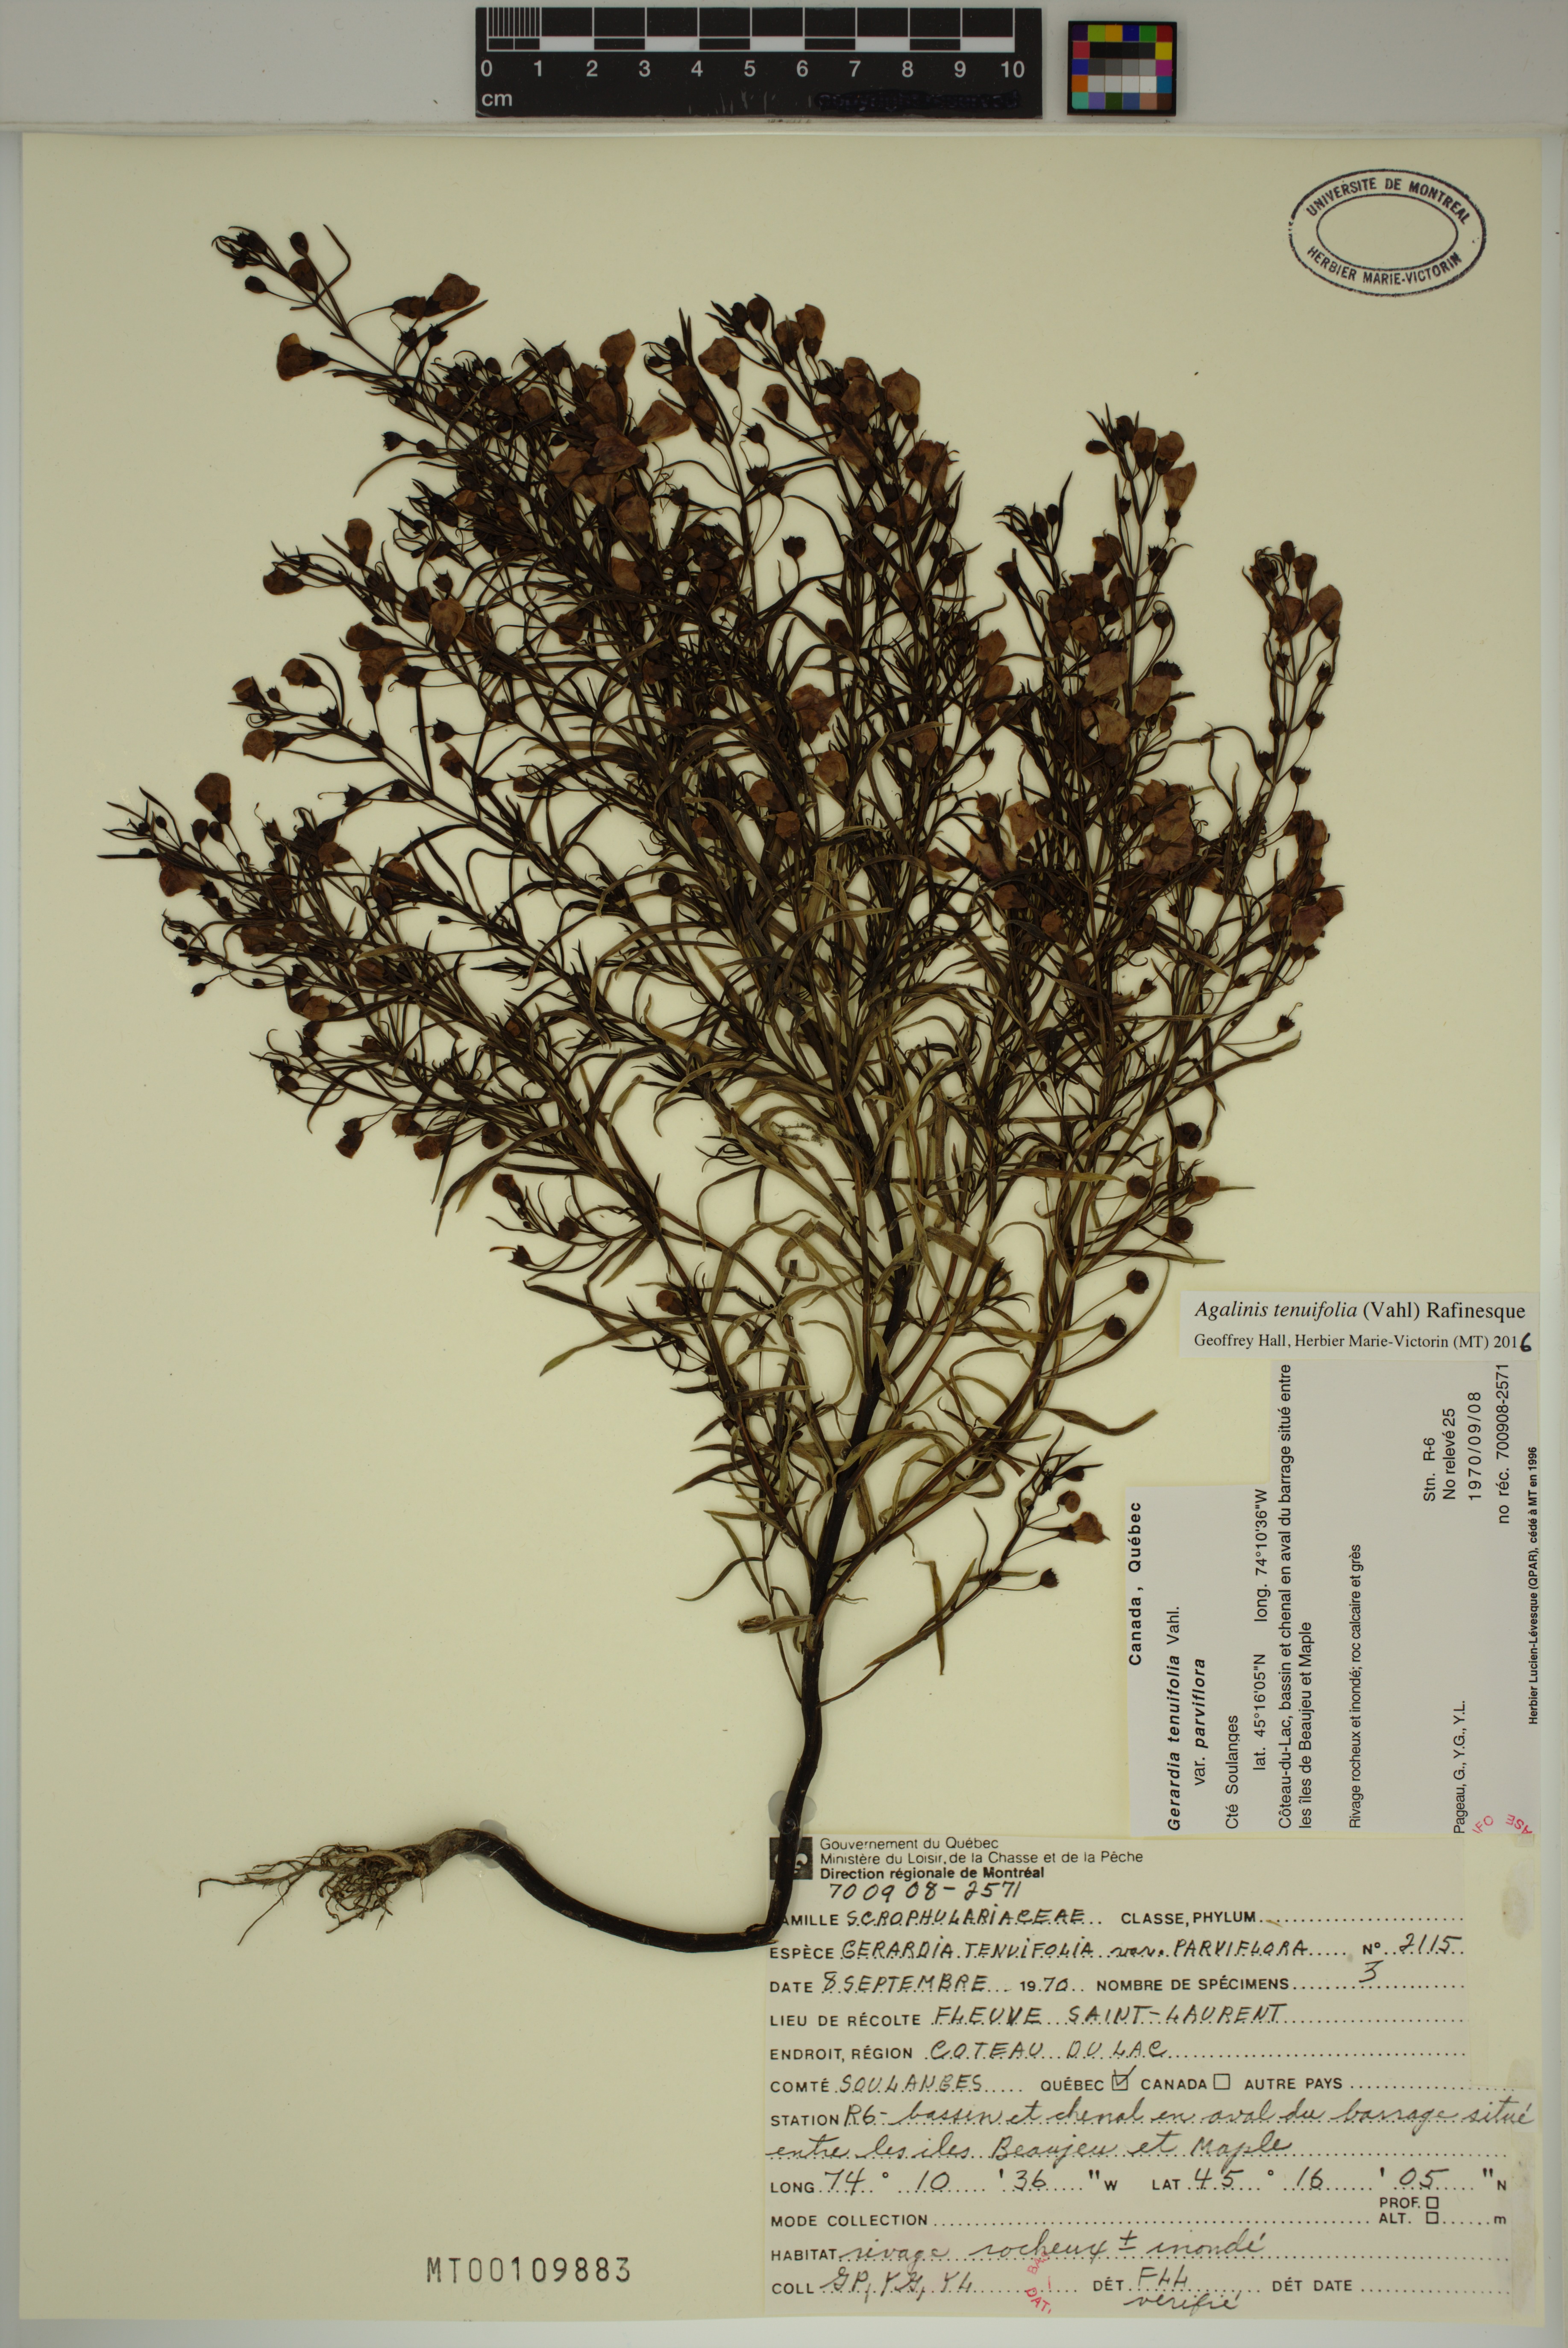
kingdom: Plantae
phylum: Tracheophyta
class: Magnoliopsida
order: Lamiales
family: Orobanchaceae
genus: Agalinis
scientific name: Agalinis tenuifolia
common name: Slender agalinis
